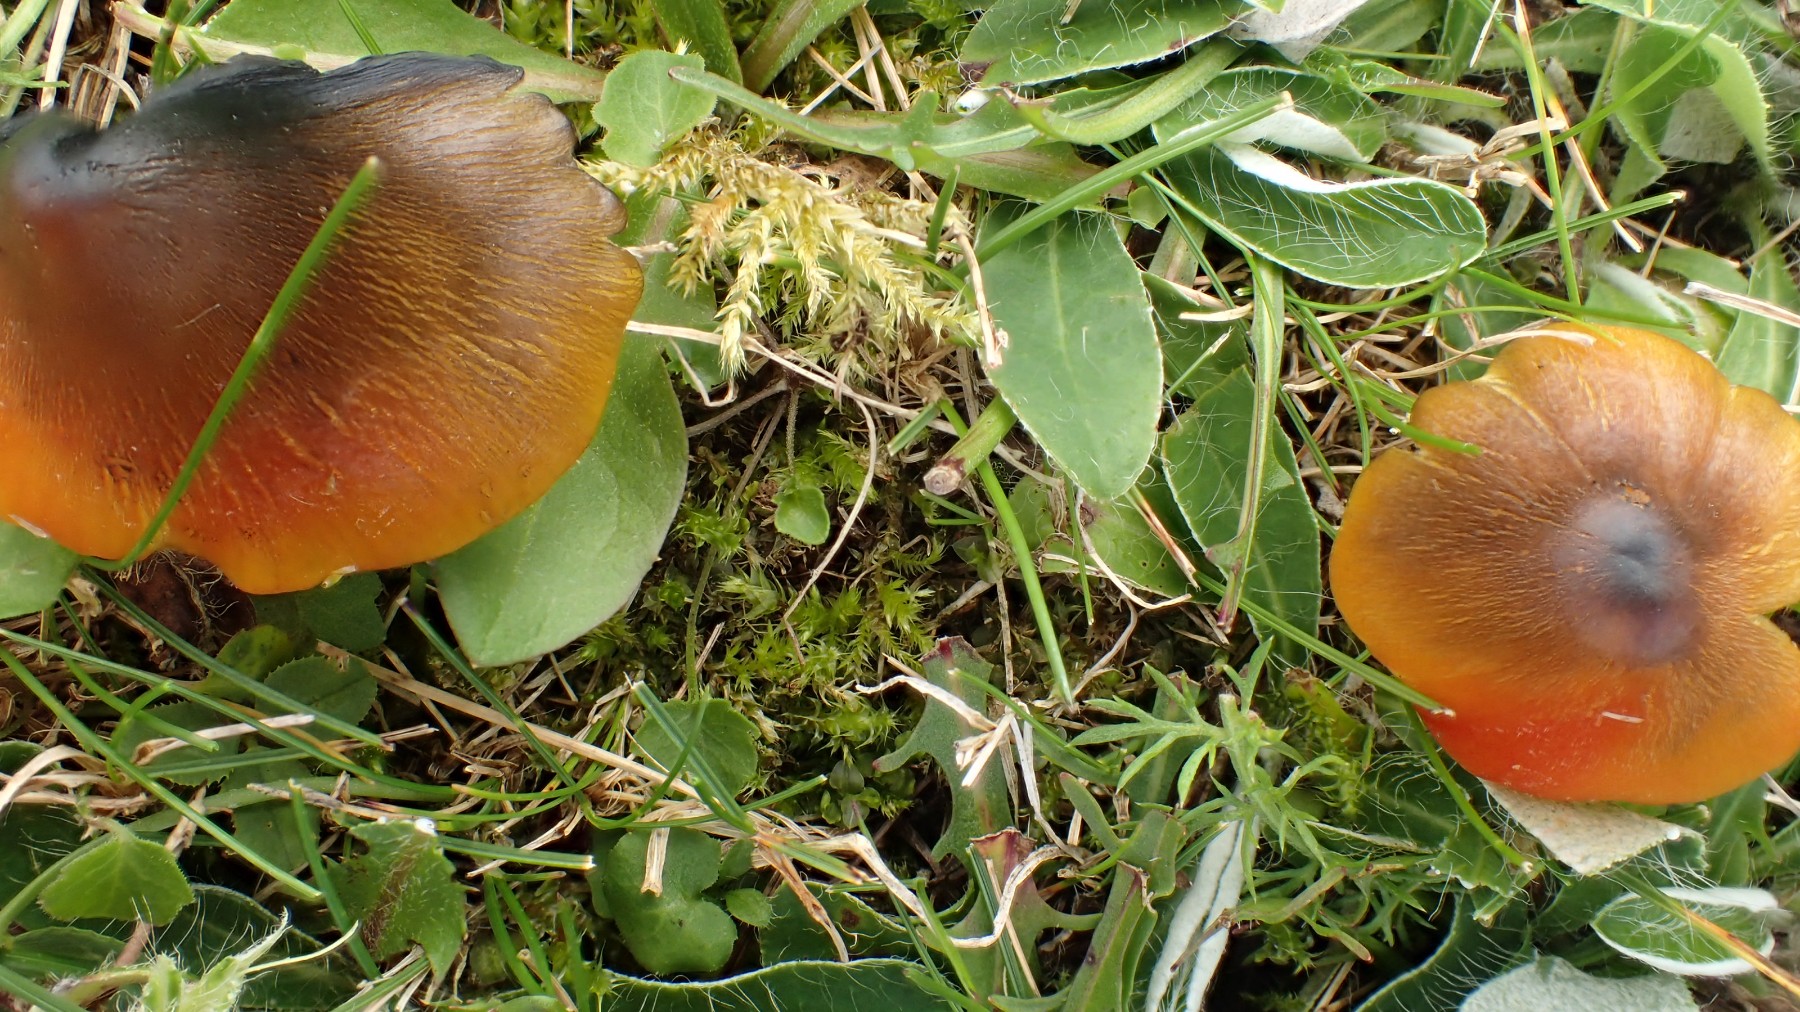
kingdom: Fungi
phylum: Basidiomycota
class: Agaricomycetes
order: Agaricales
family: Hygrophoraceae
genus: Hygrocybe
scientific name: Hygrocybe conica
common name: kegle-vokshat
